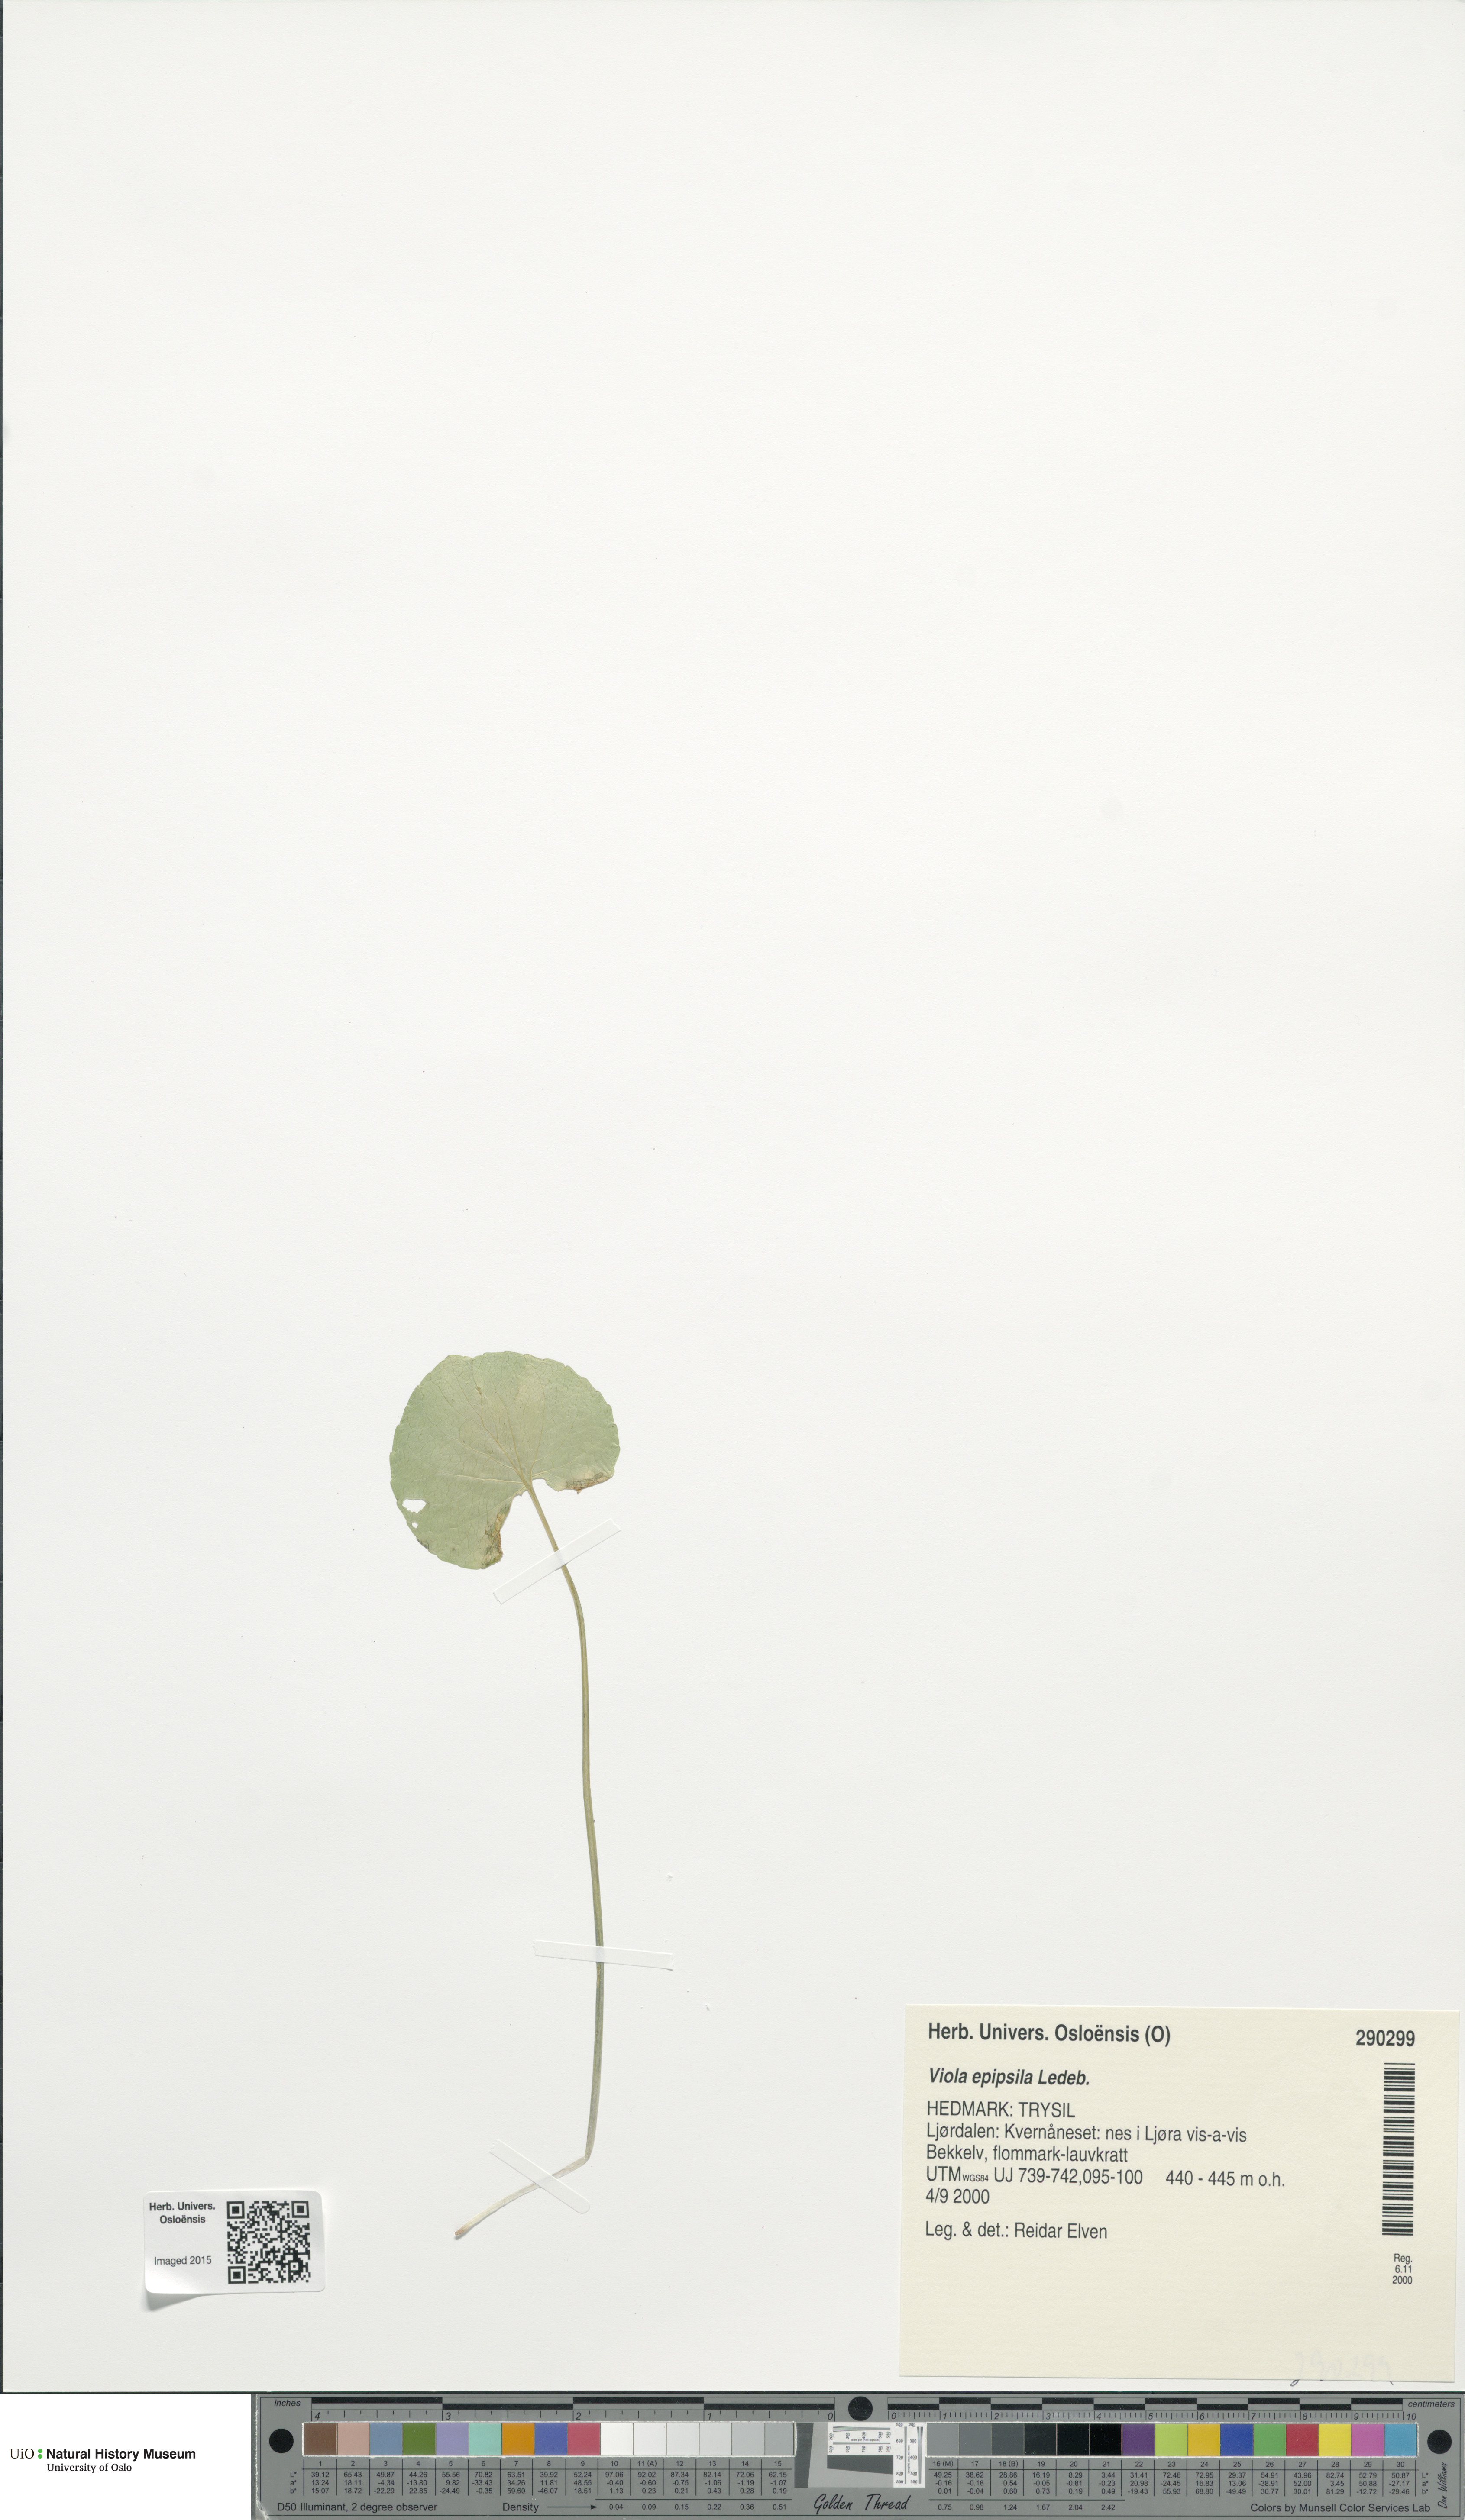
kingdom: Plantae
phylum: Tracheophyta
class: Magnoliopsida
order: Malpighiales
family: Violaceae
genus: Viola
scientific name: Viola epipsila
